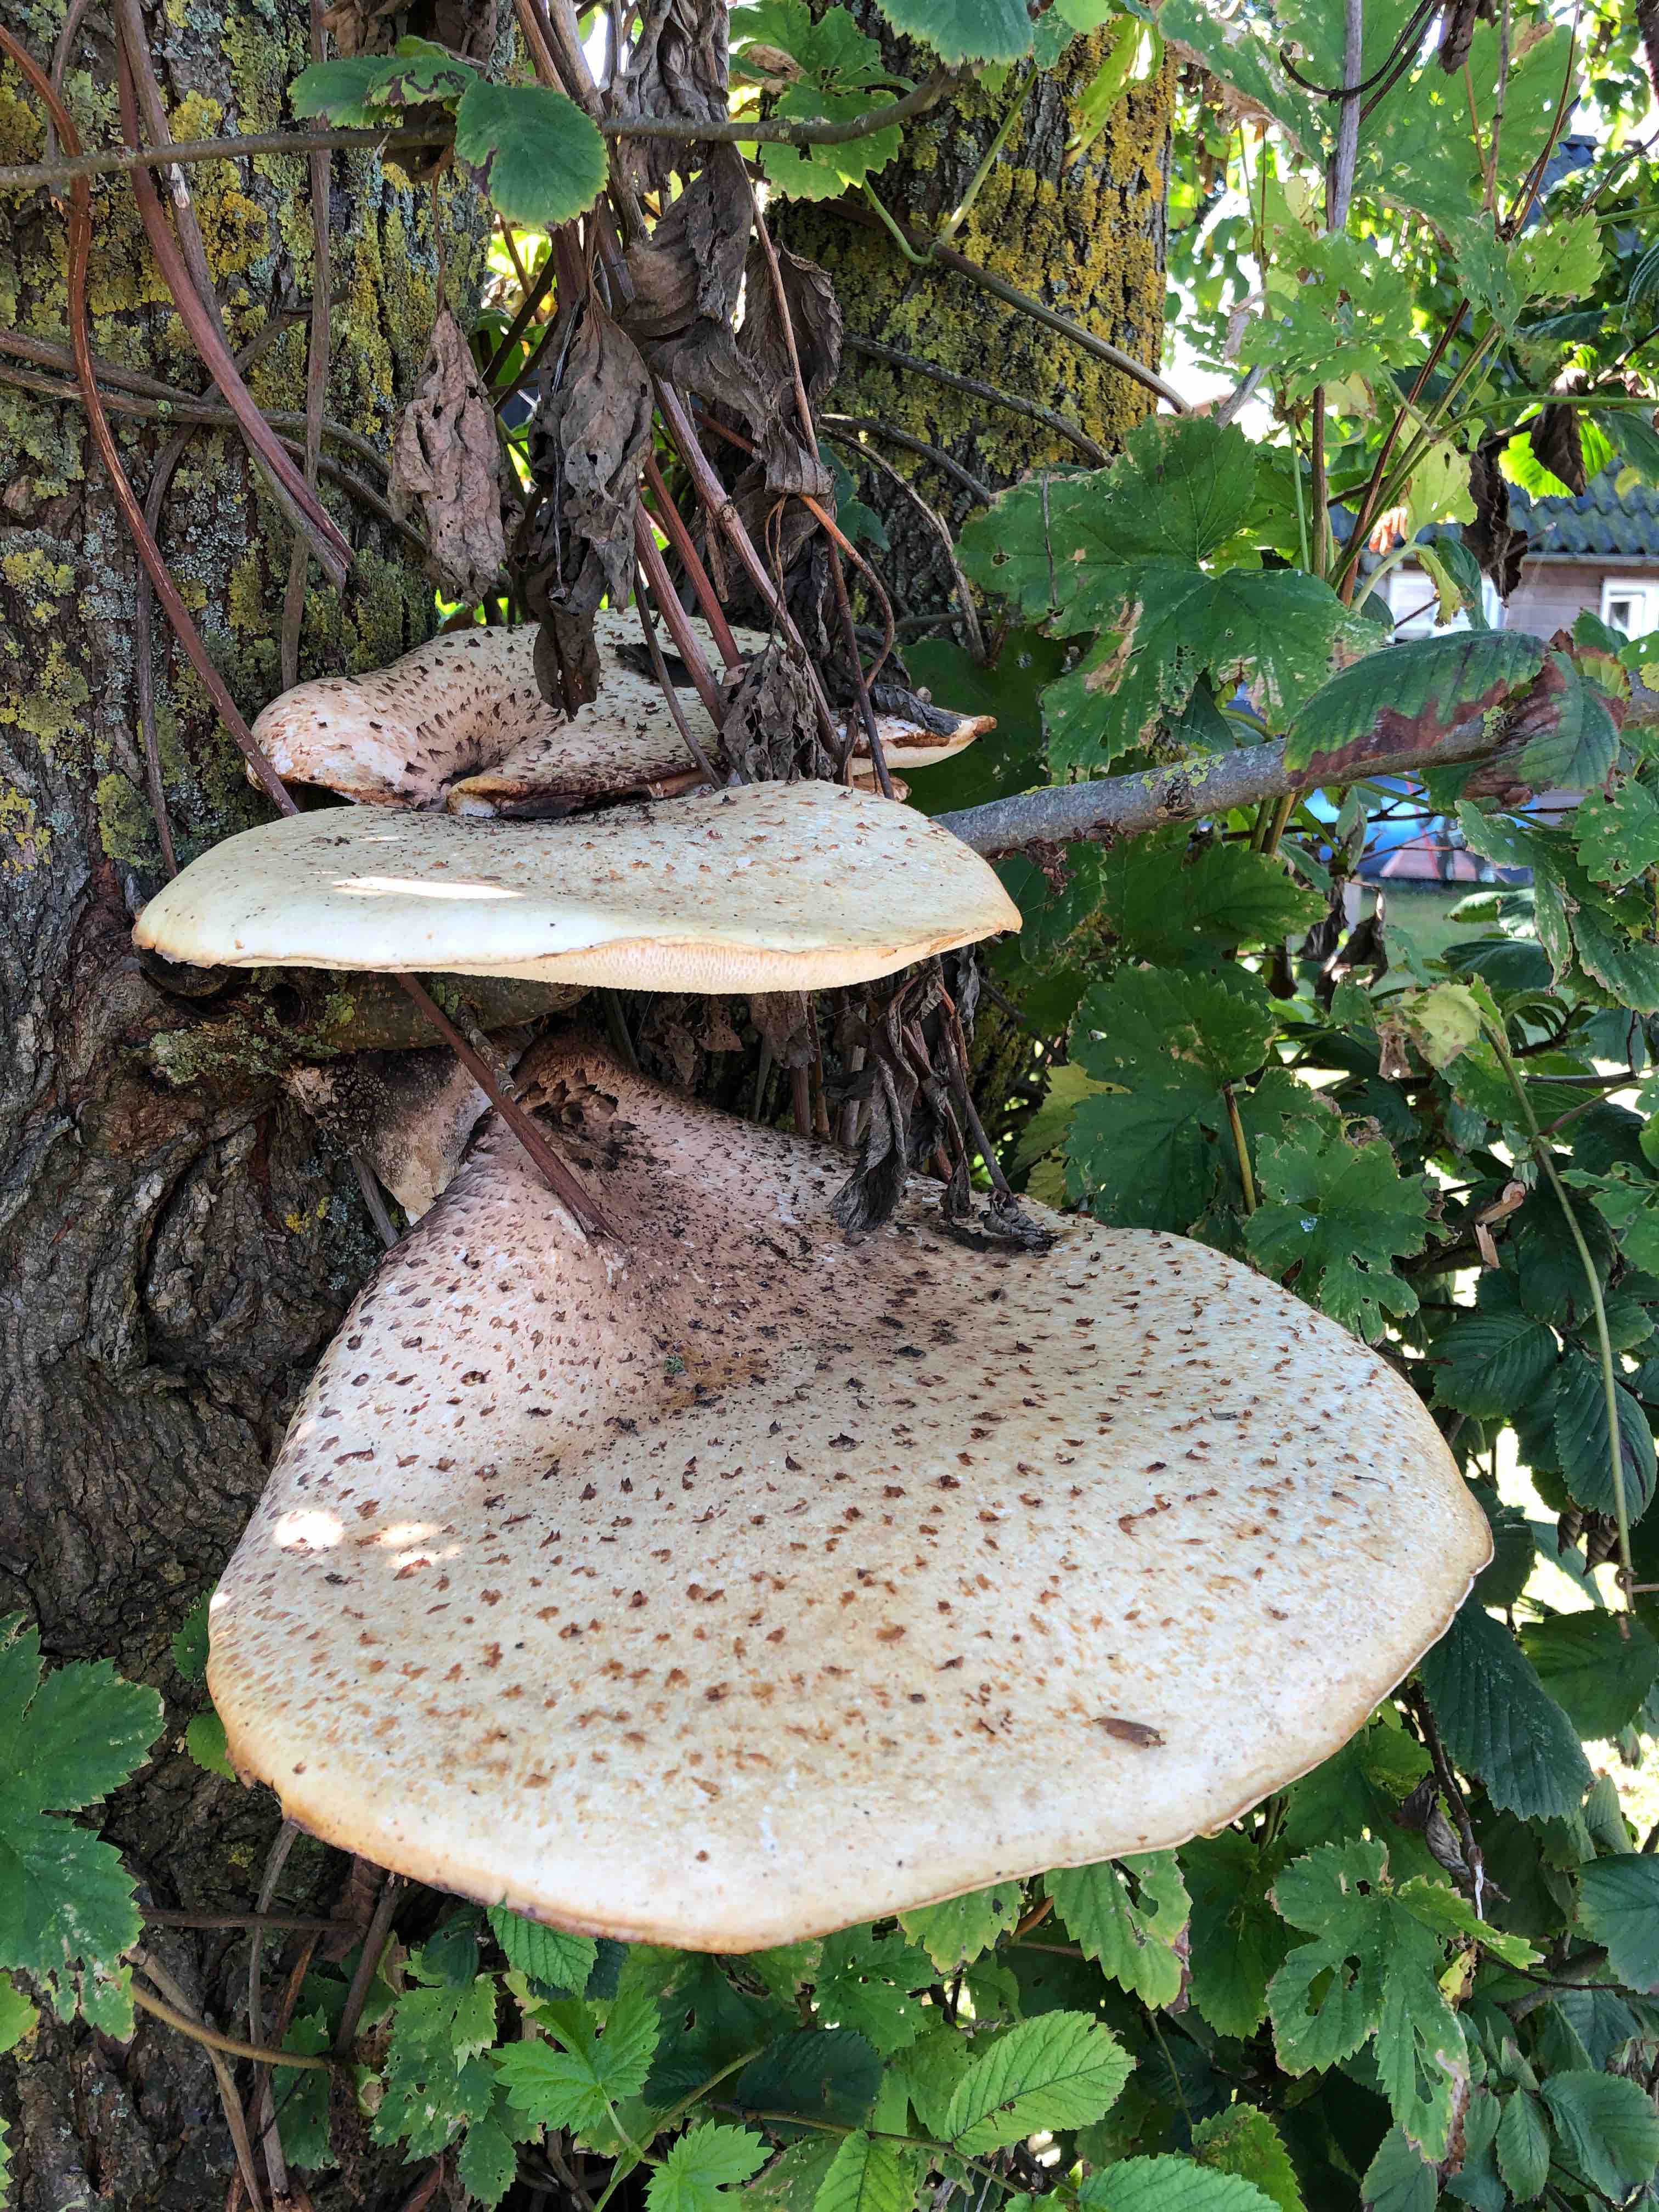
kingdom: Fungi
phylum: Basidiomycota
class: Agaricomycetes
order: Polyporales
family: Polyporaceae
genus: Cerioporus
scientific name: Cerioporus squamosus
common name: skællet stilkporesvamp
